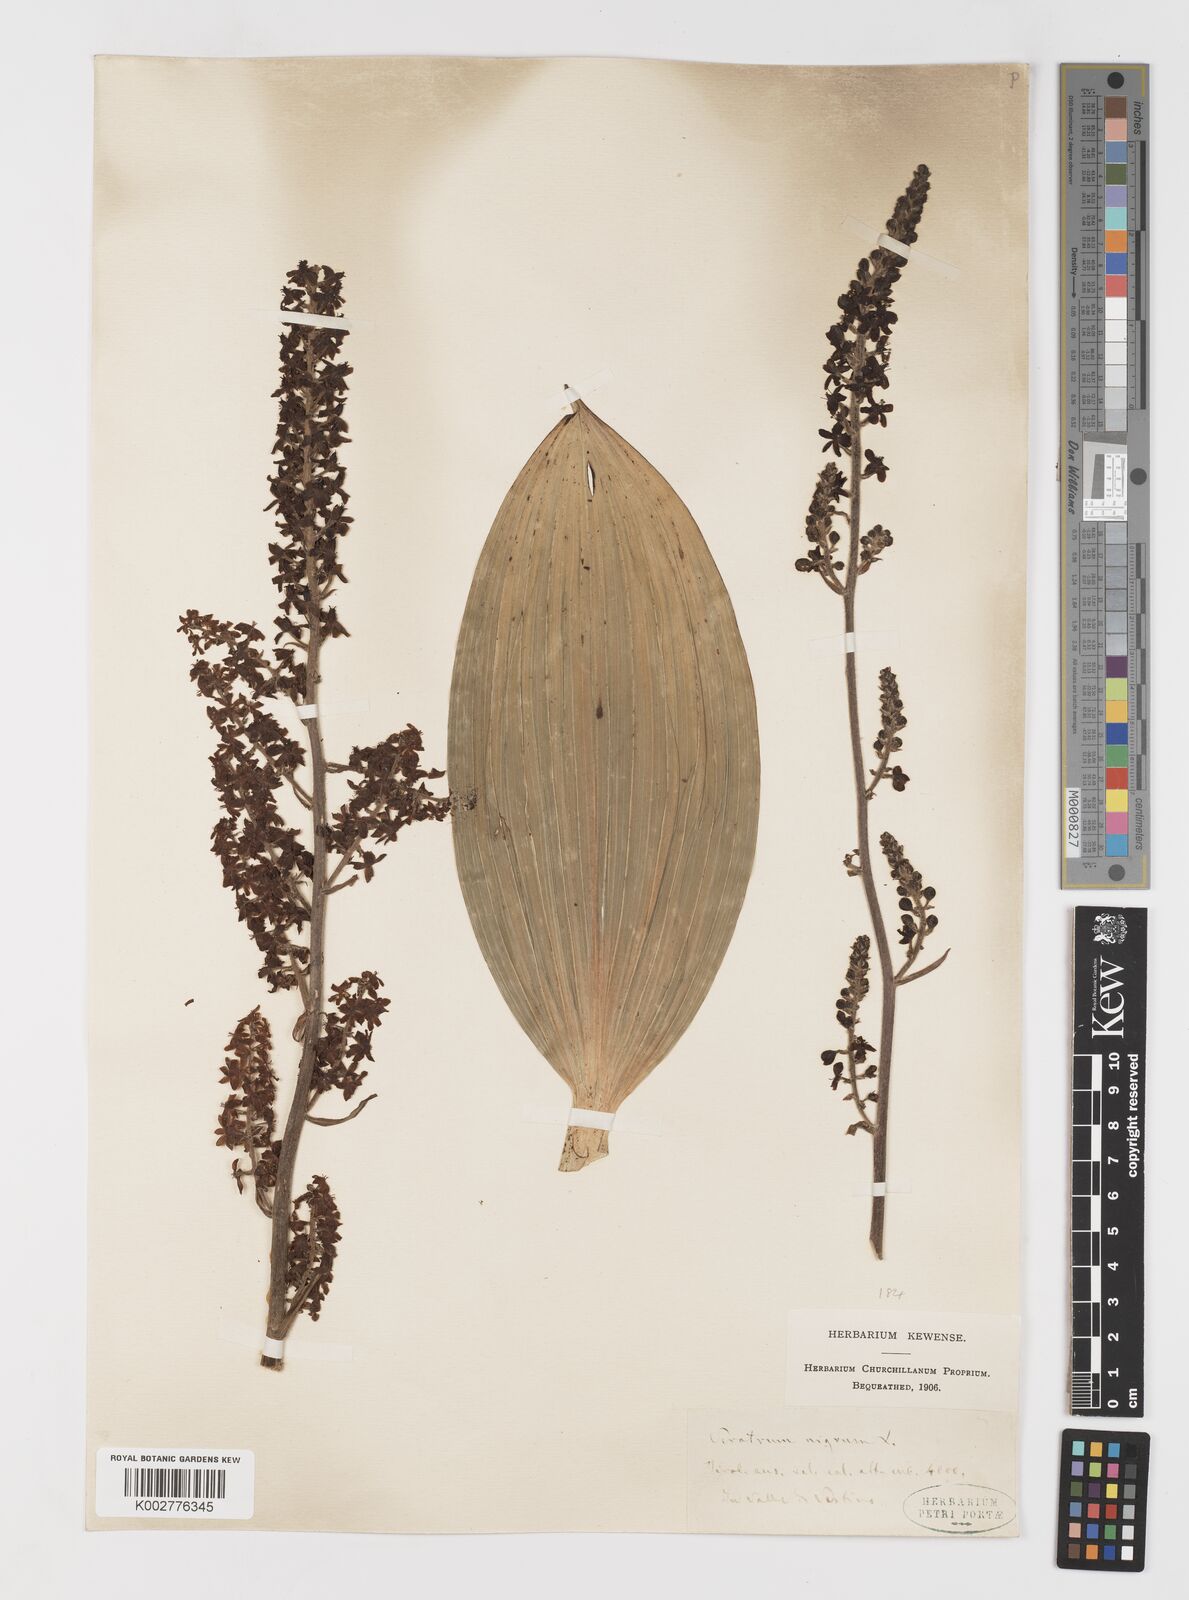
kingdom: Plantae
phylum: Tracheophyta
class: Liliopsida
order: Liliales
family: Melanthiaceae
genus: Veratrum
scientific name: Veratrum nigrum
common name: Black veratrum
